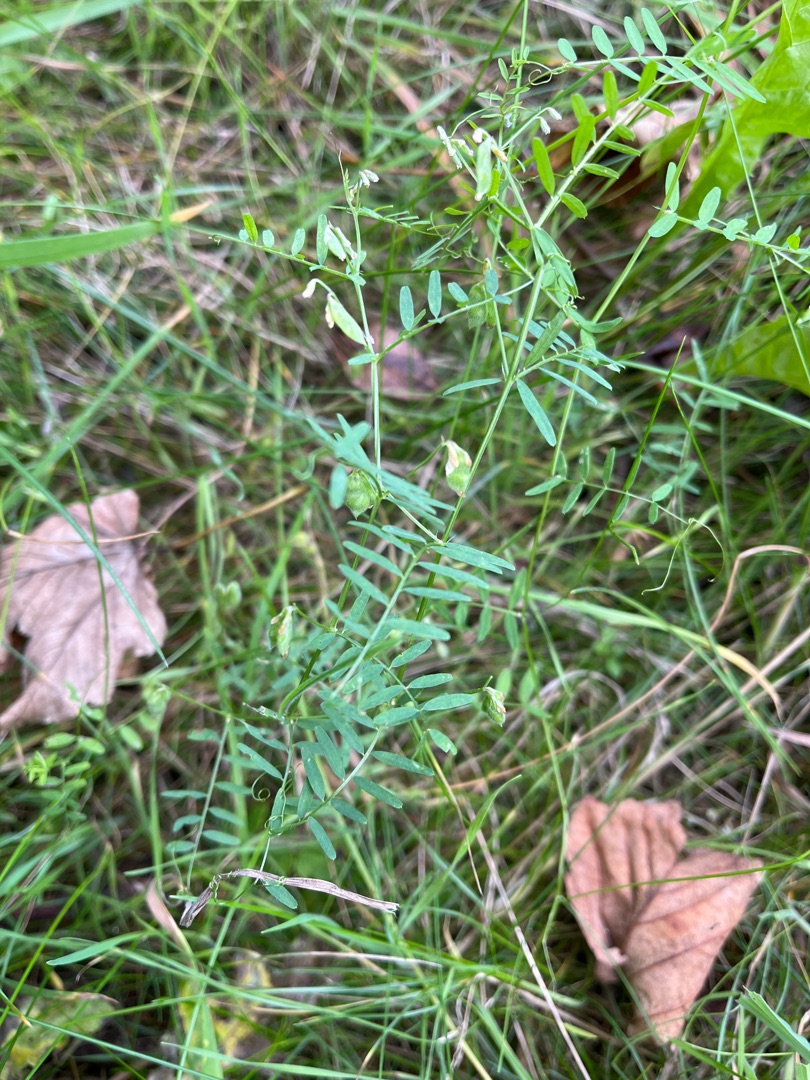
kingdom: Plantae
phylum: Tracheophyta
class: Magnoliopsida
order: Fabales
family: Fabaceae
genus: Vicia
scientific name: Vicia hirsuta
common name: Tofrøet vikke
